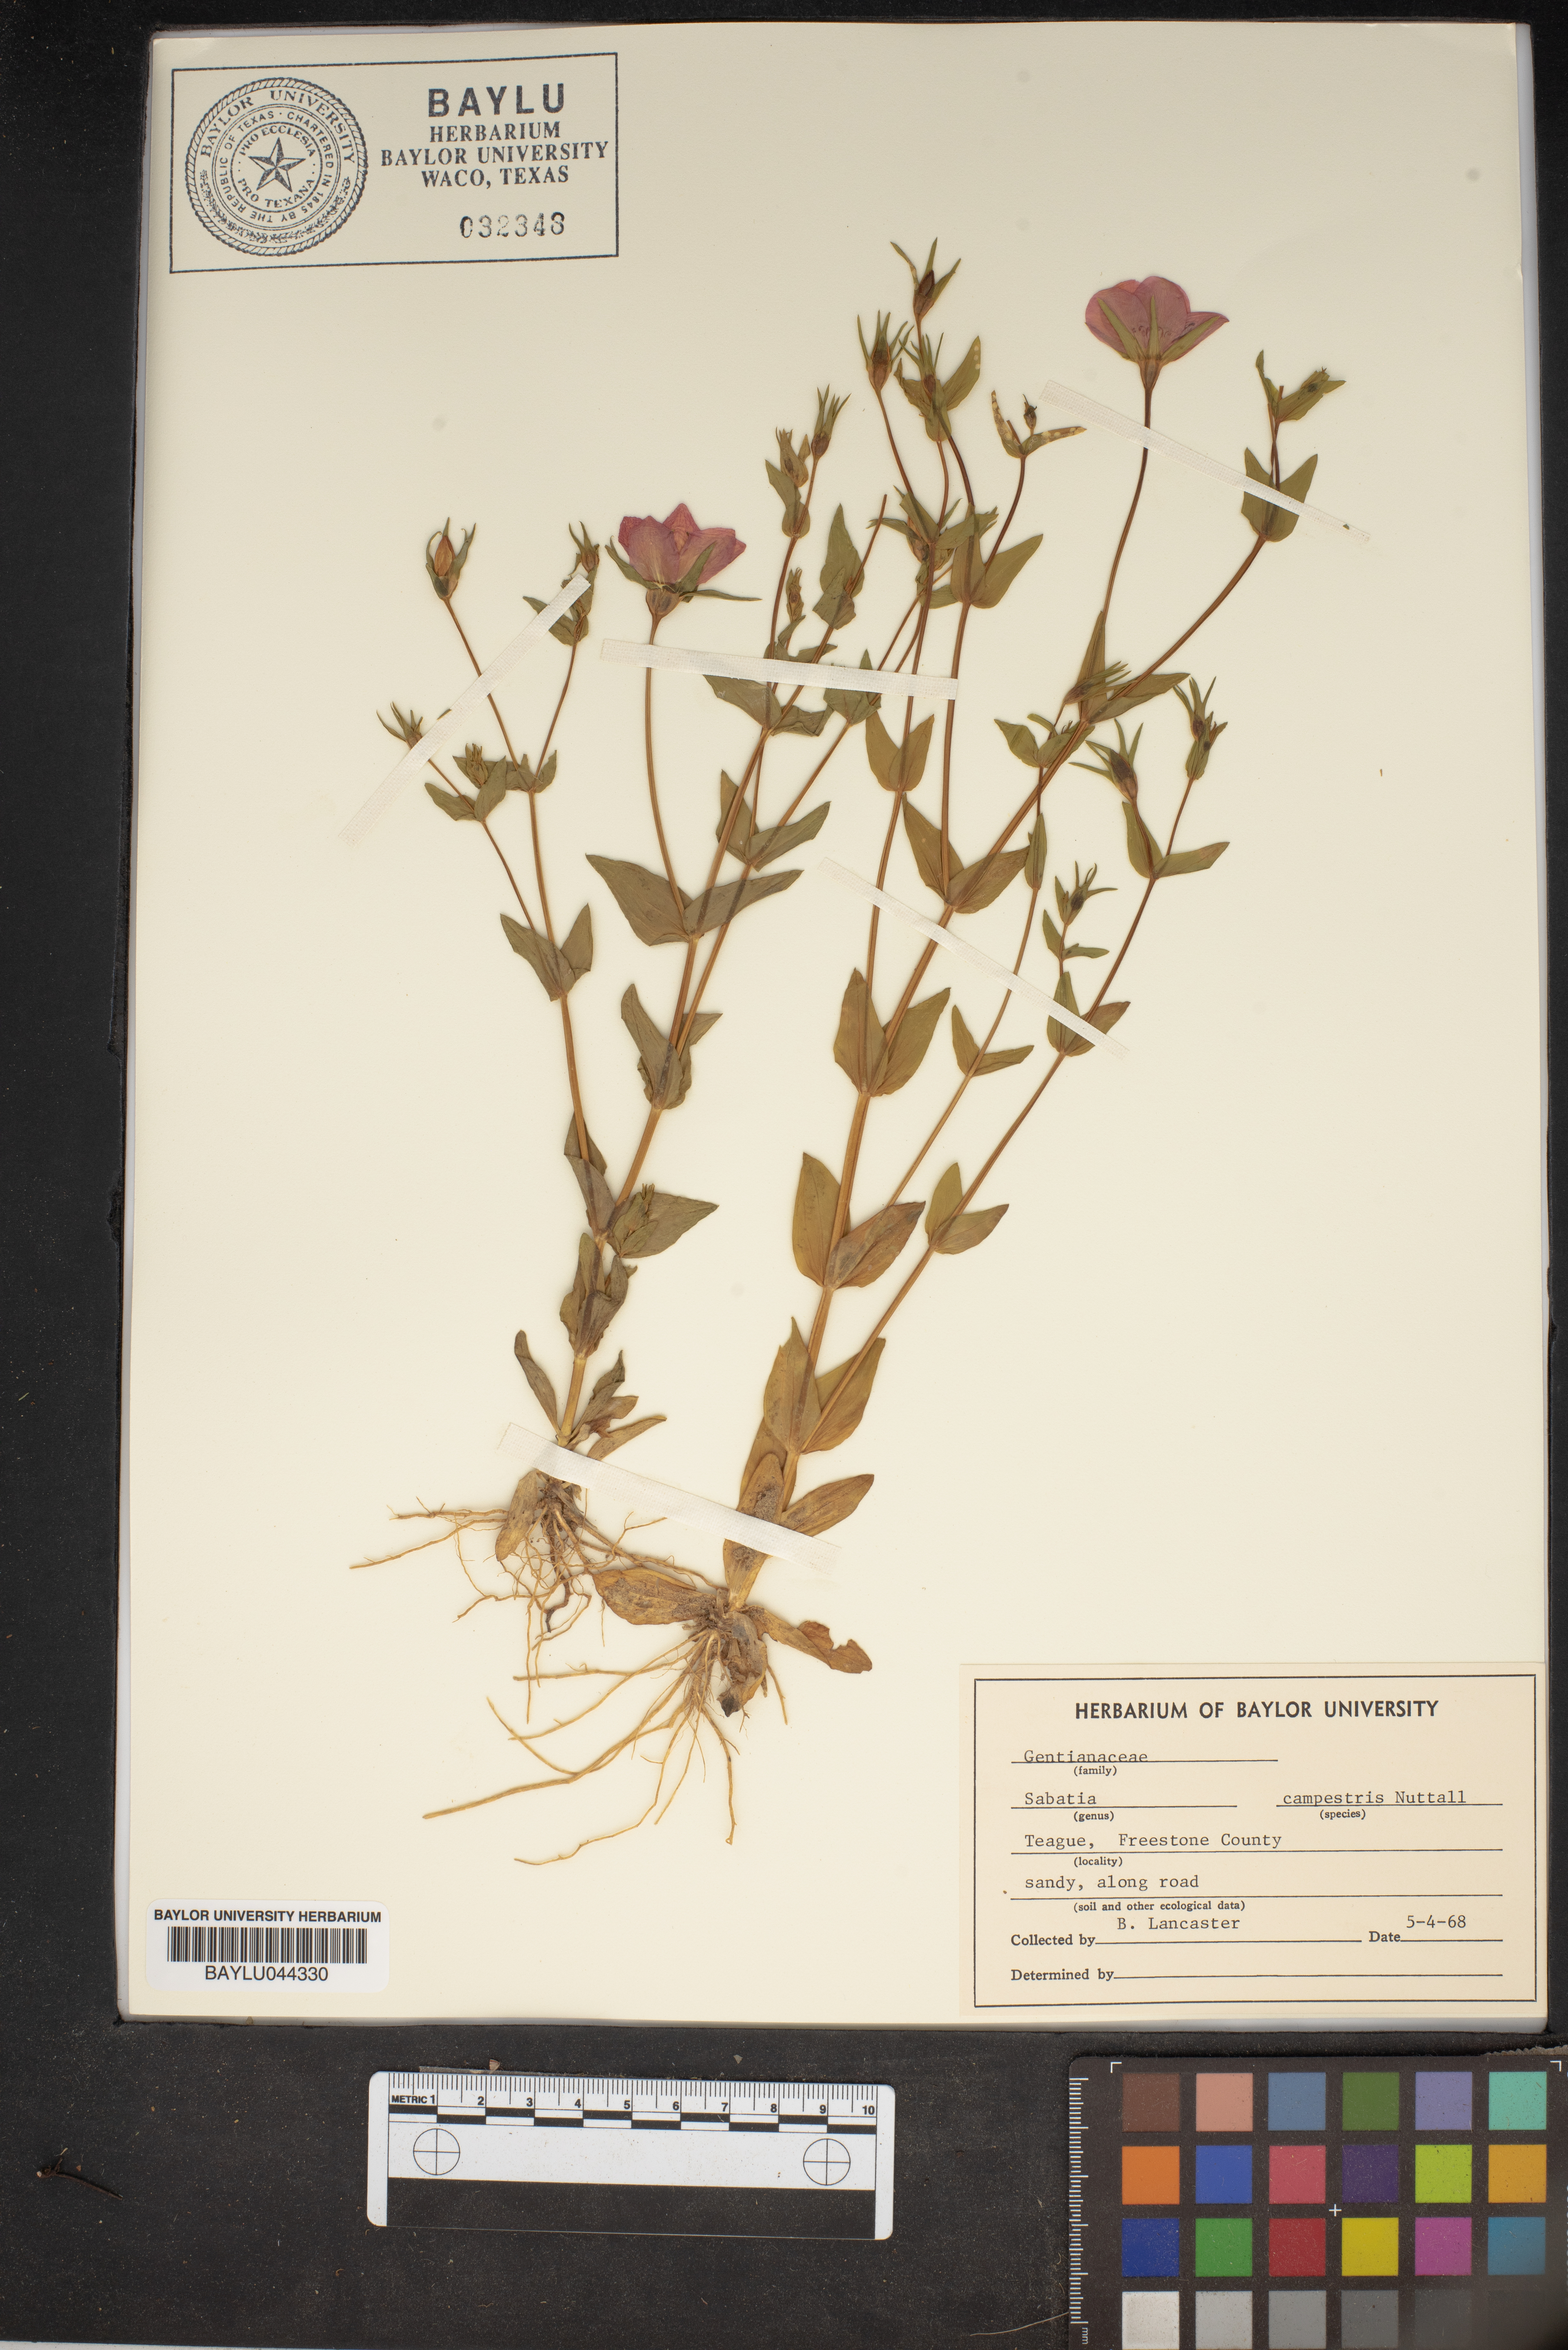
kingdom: Plantae
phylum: Tracheophyta
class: Magnoliopsida
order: Gentianales
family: Gentianaceae
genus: Sabatia
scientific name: Sabatia campestris
